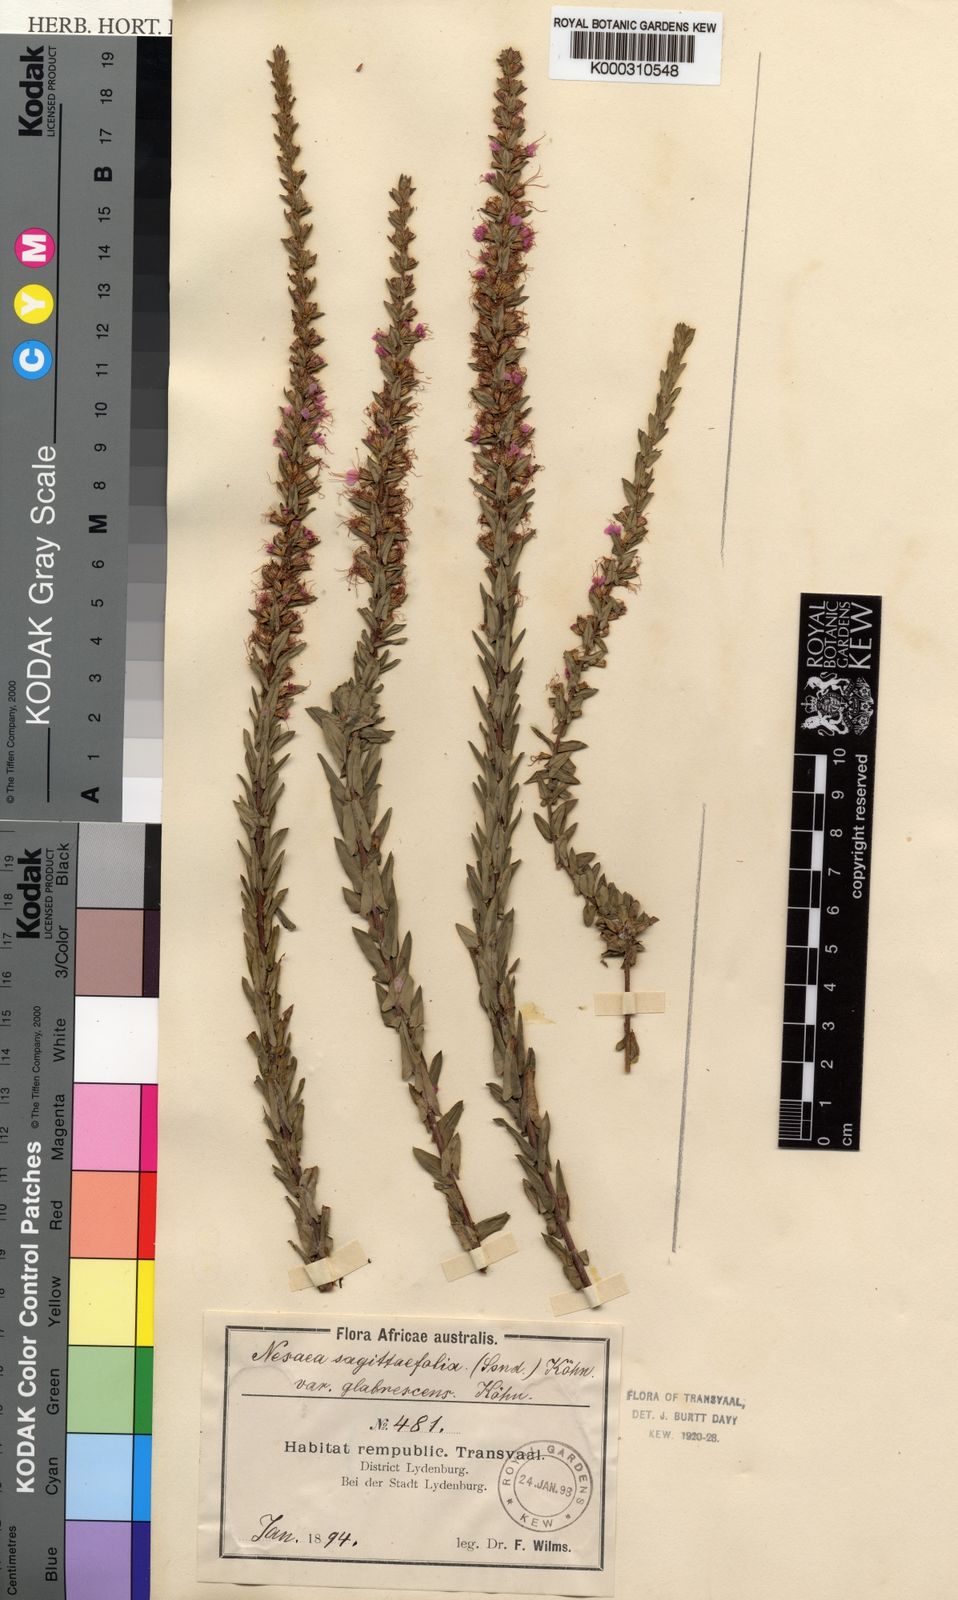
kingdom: Plantae
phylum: Tracheophyta
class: Magnoliopsida
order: Myrtales
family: Lythraceae
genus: Ammannia
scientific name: Ammannia sagittifolia
